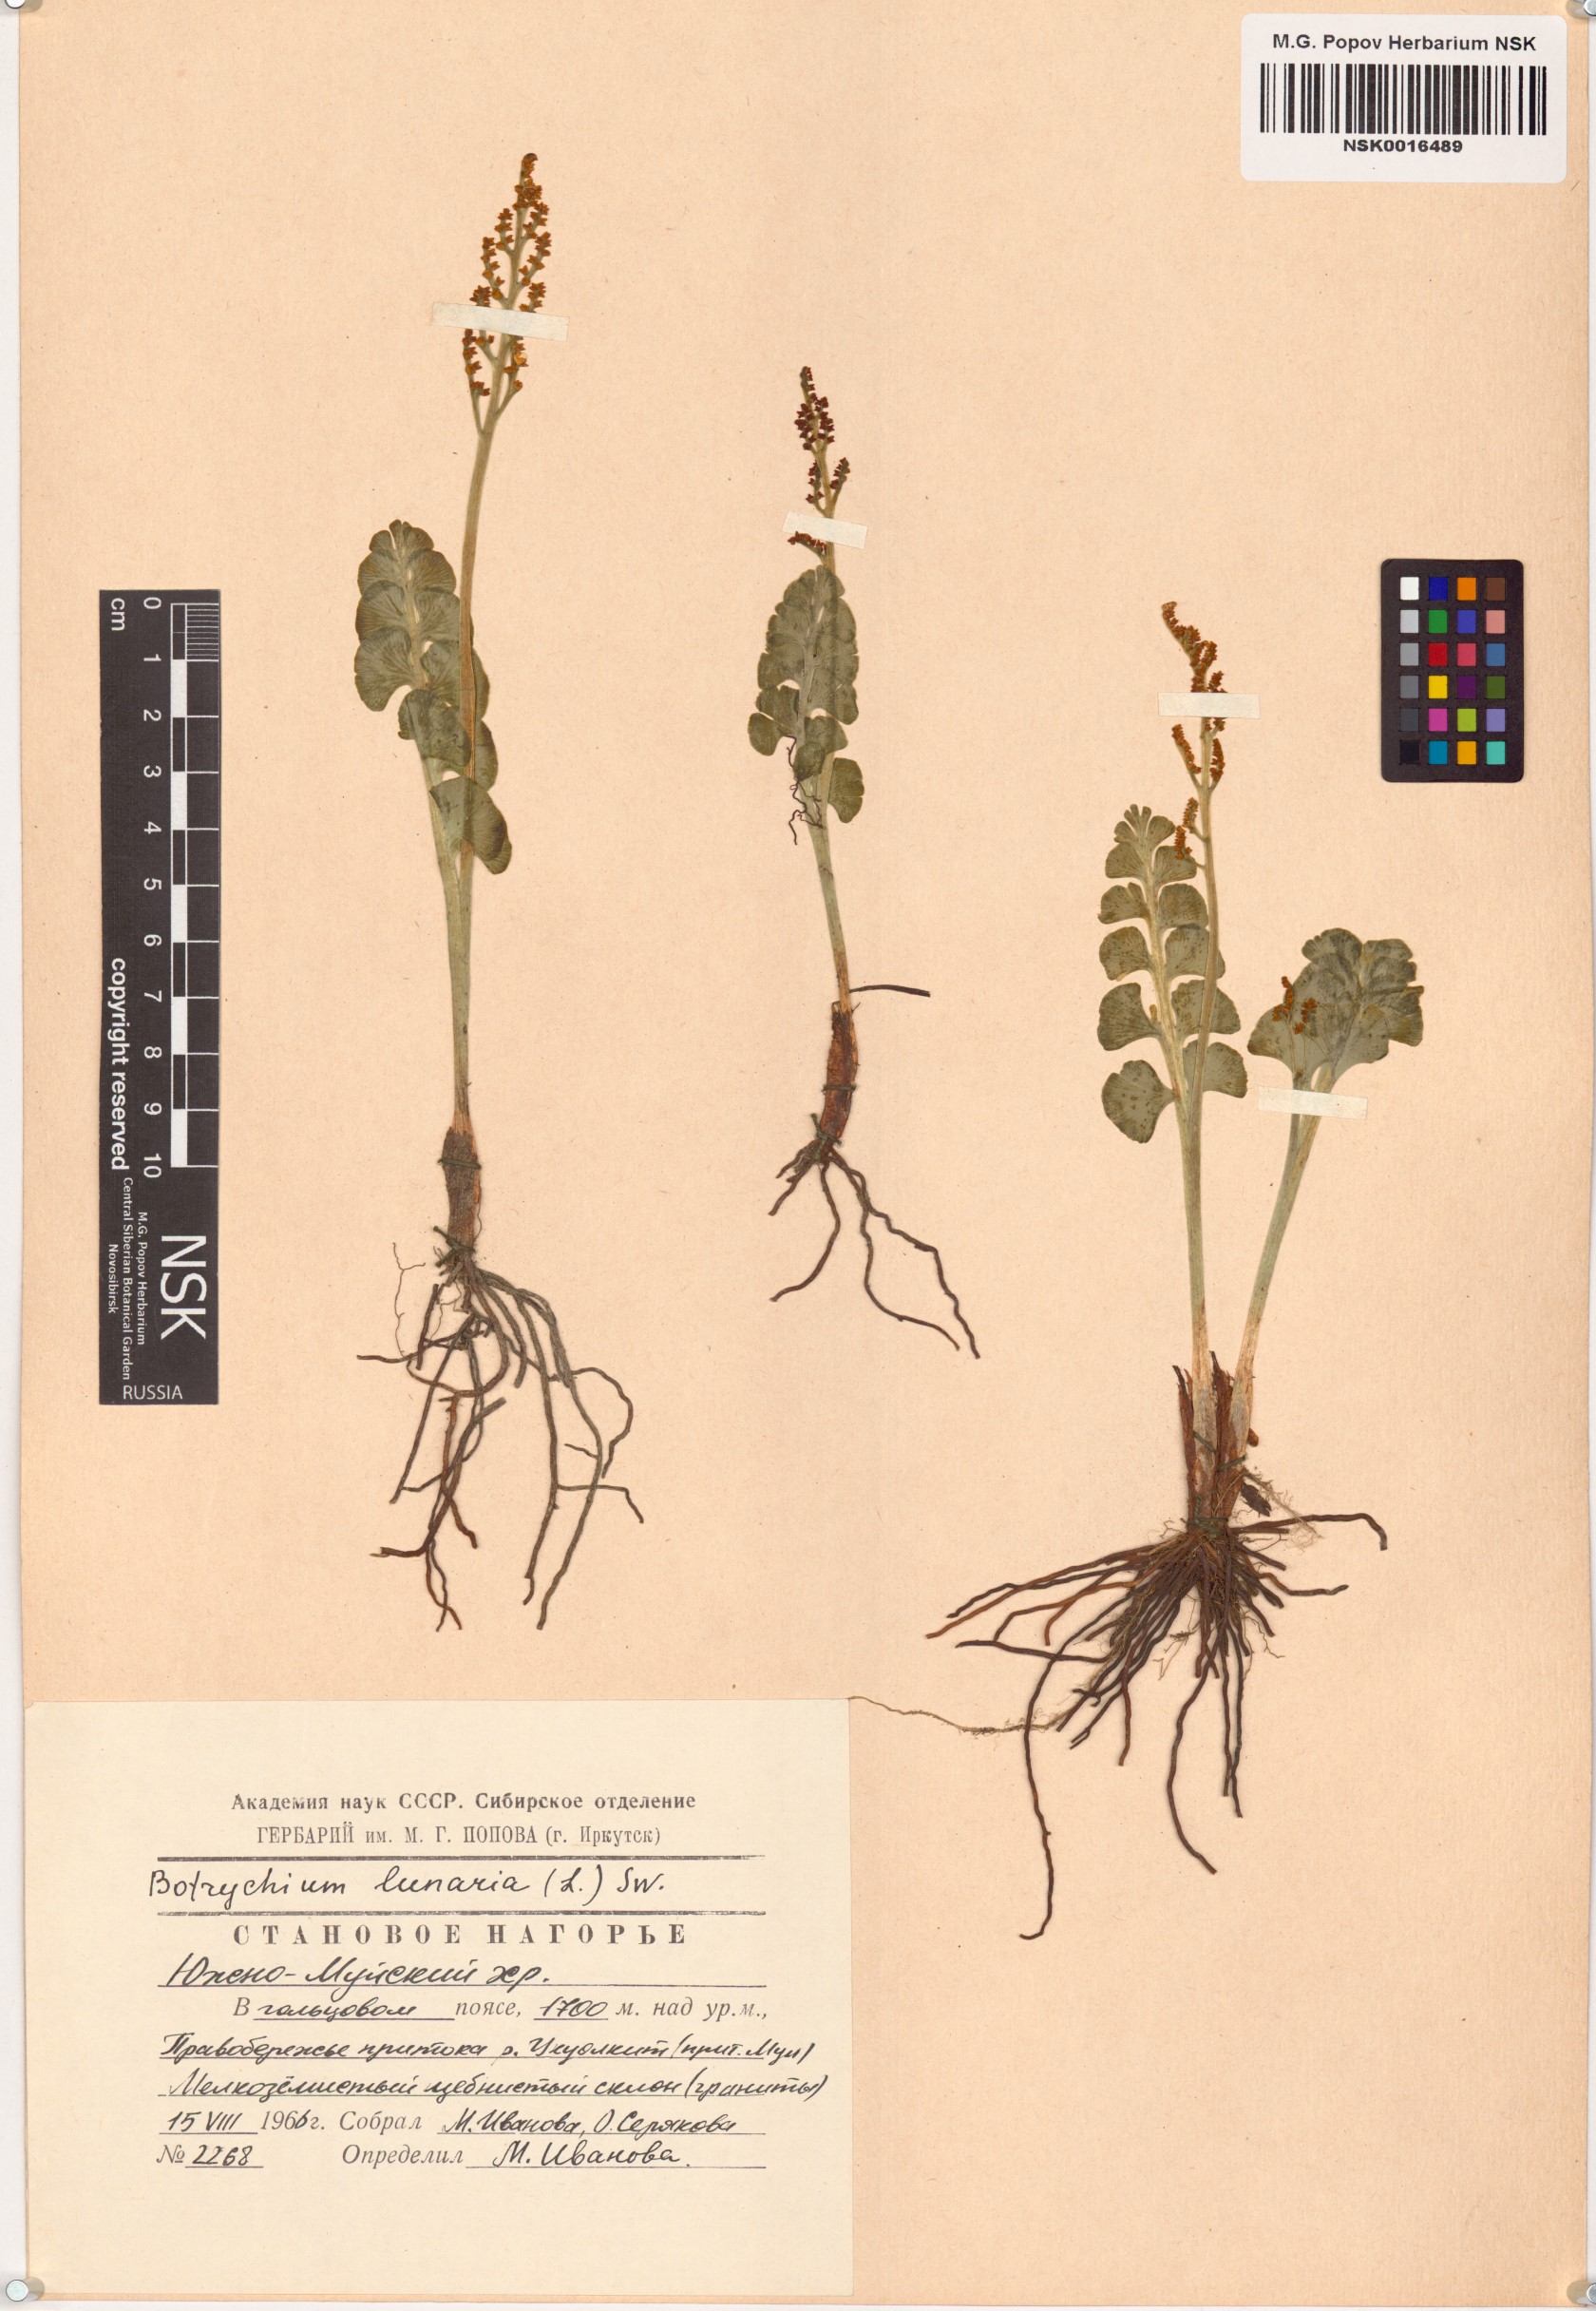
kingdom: Plantae
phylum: Tracheophyta
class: Polypodiopsida
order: Ophioglossales
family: Ophioglossaceae
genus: Botrychium
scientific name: Botrychium lunaria
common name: Moonwort
